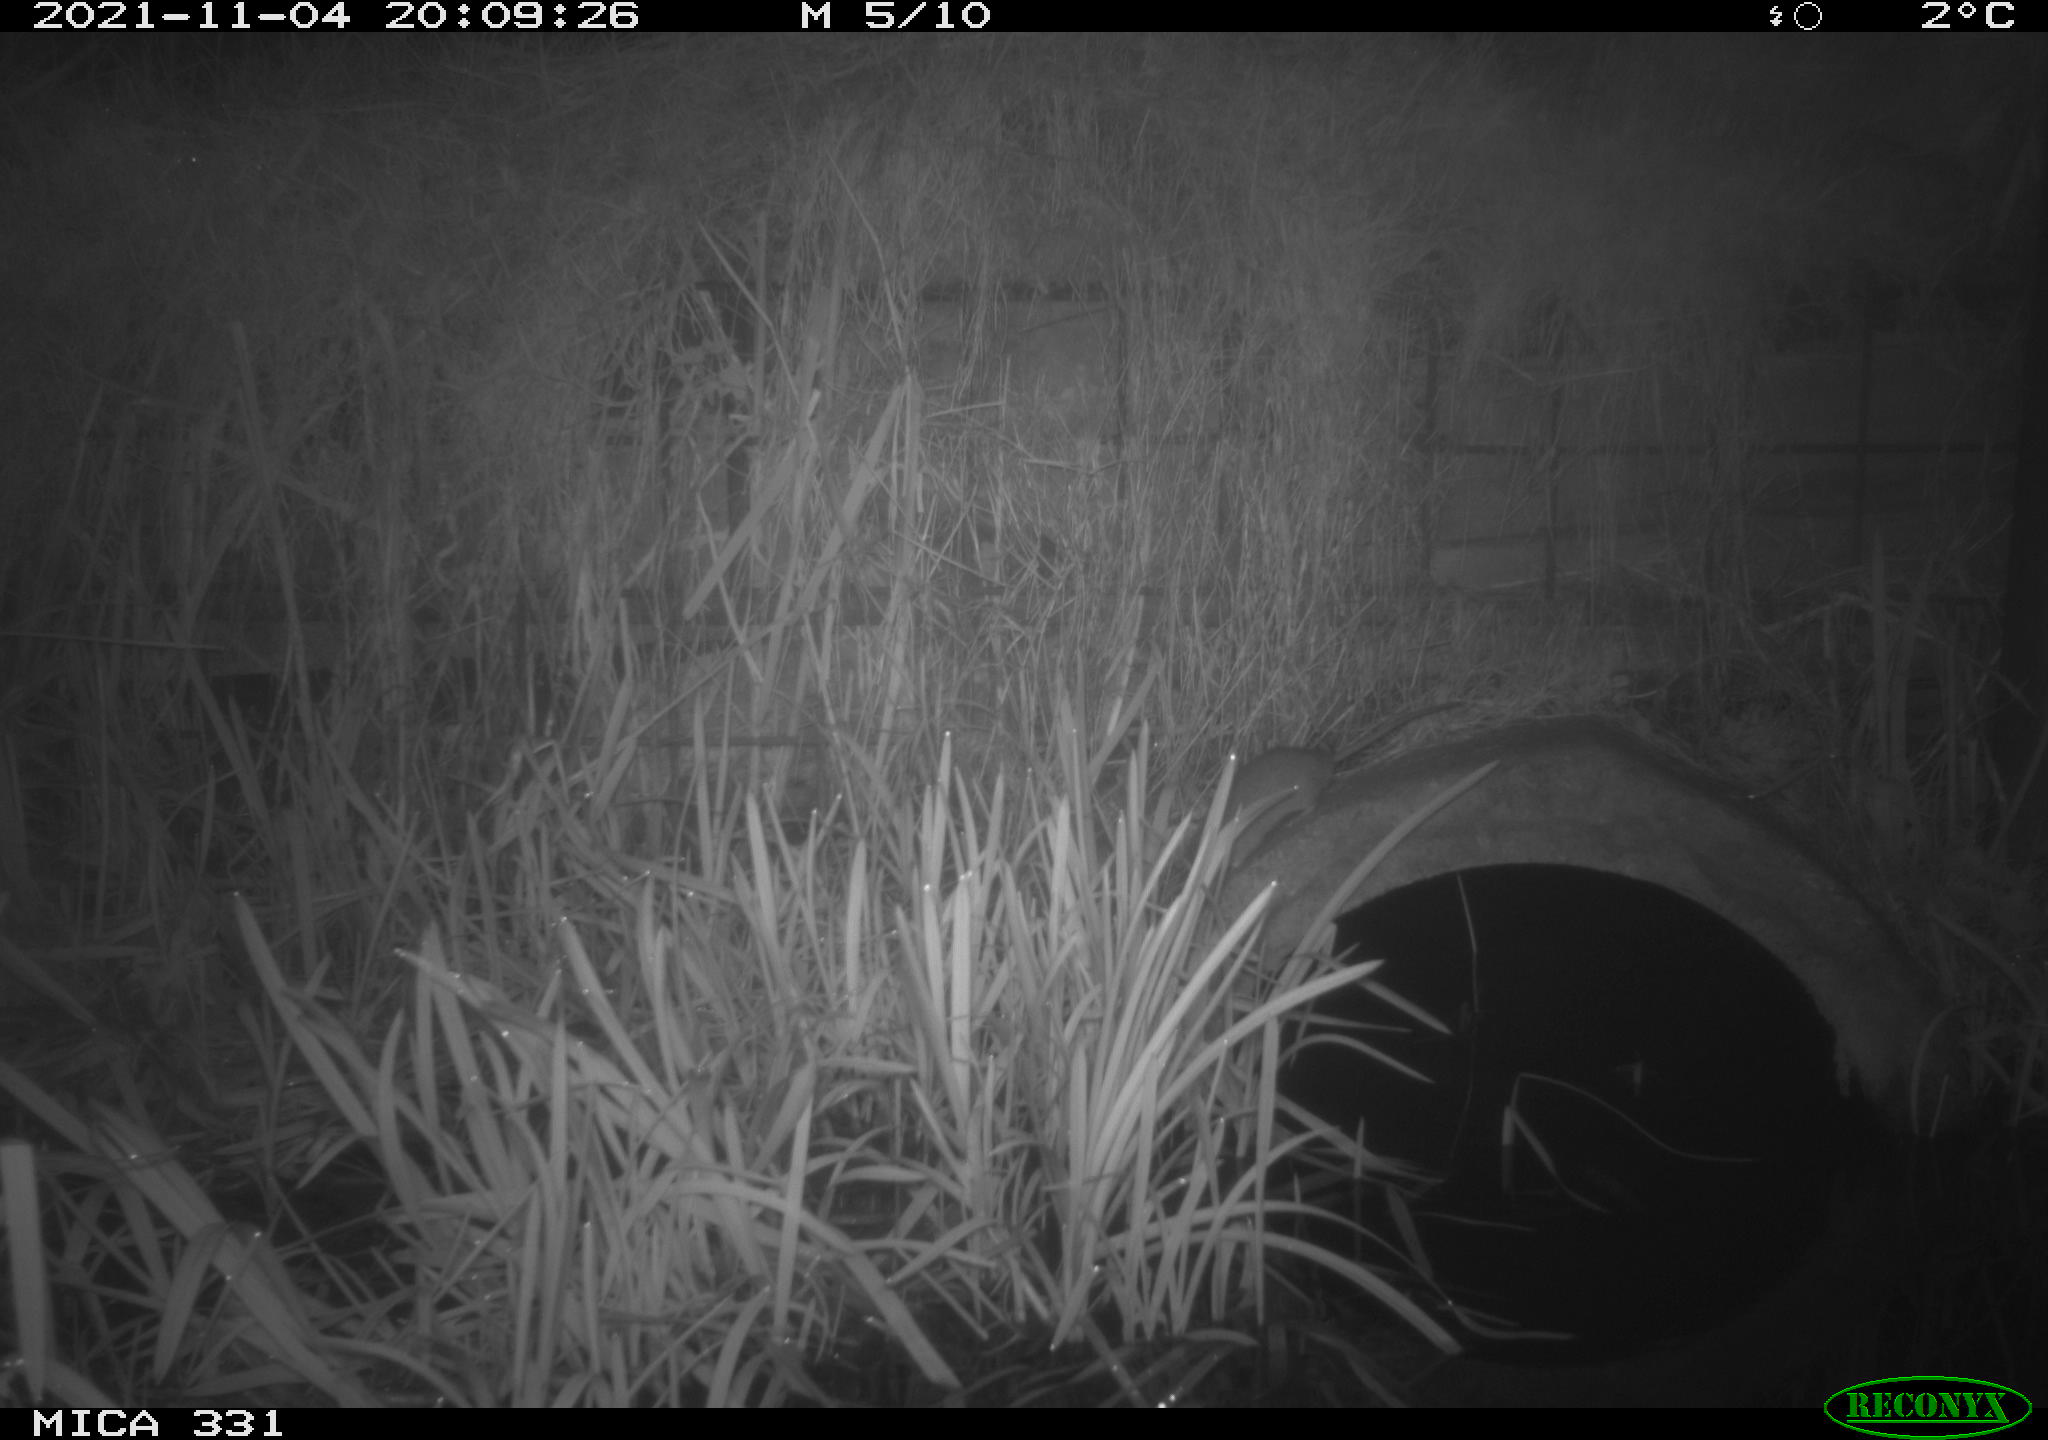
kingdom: Animalia
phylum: Chordata
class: Mammalia
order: Rodentia
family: Muridae
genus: Rattus
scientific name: Rattus norvegicus
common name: Brown rat
